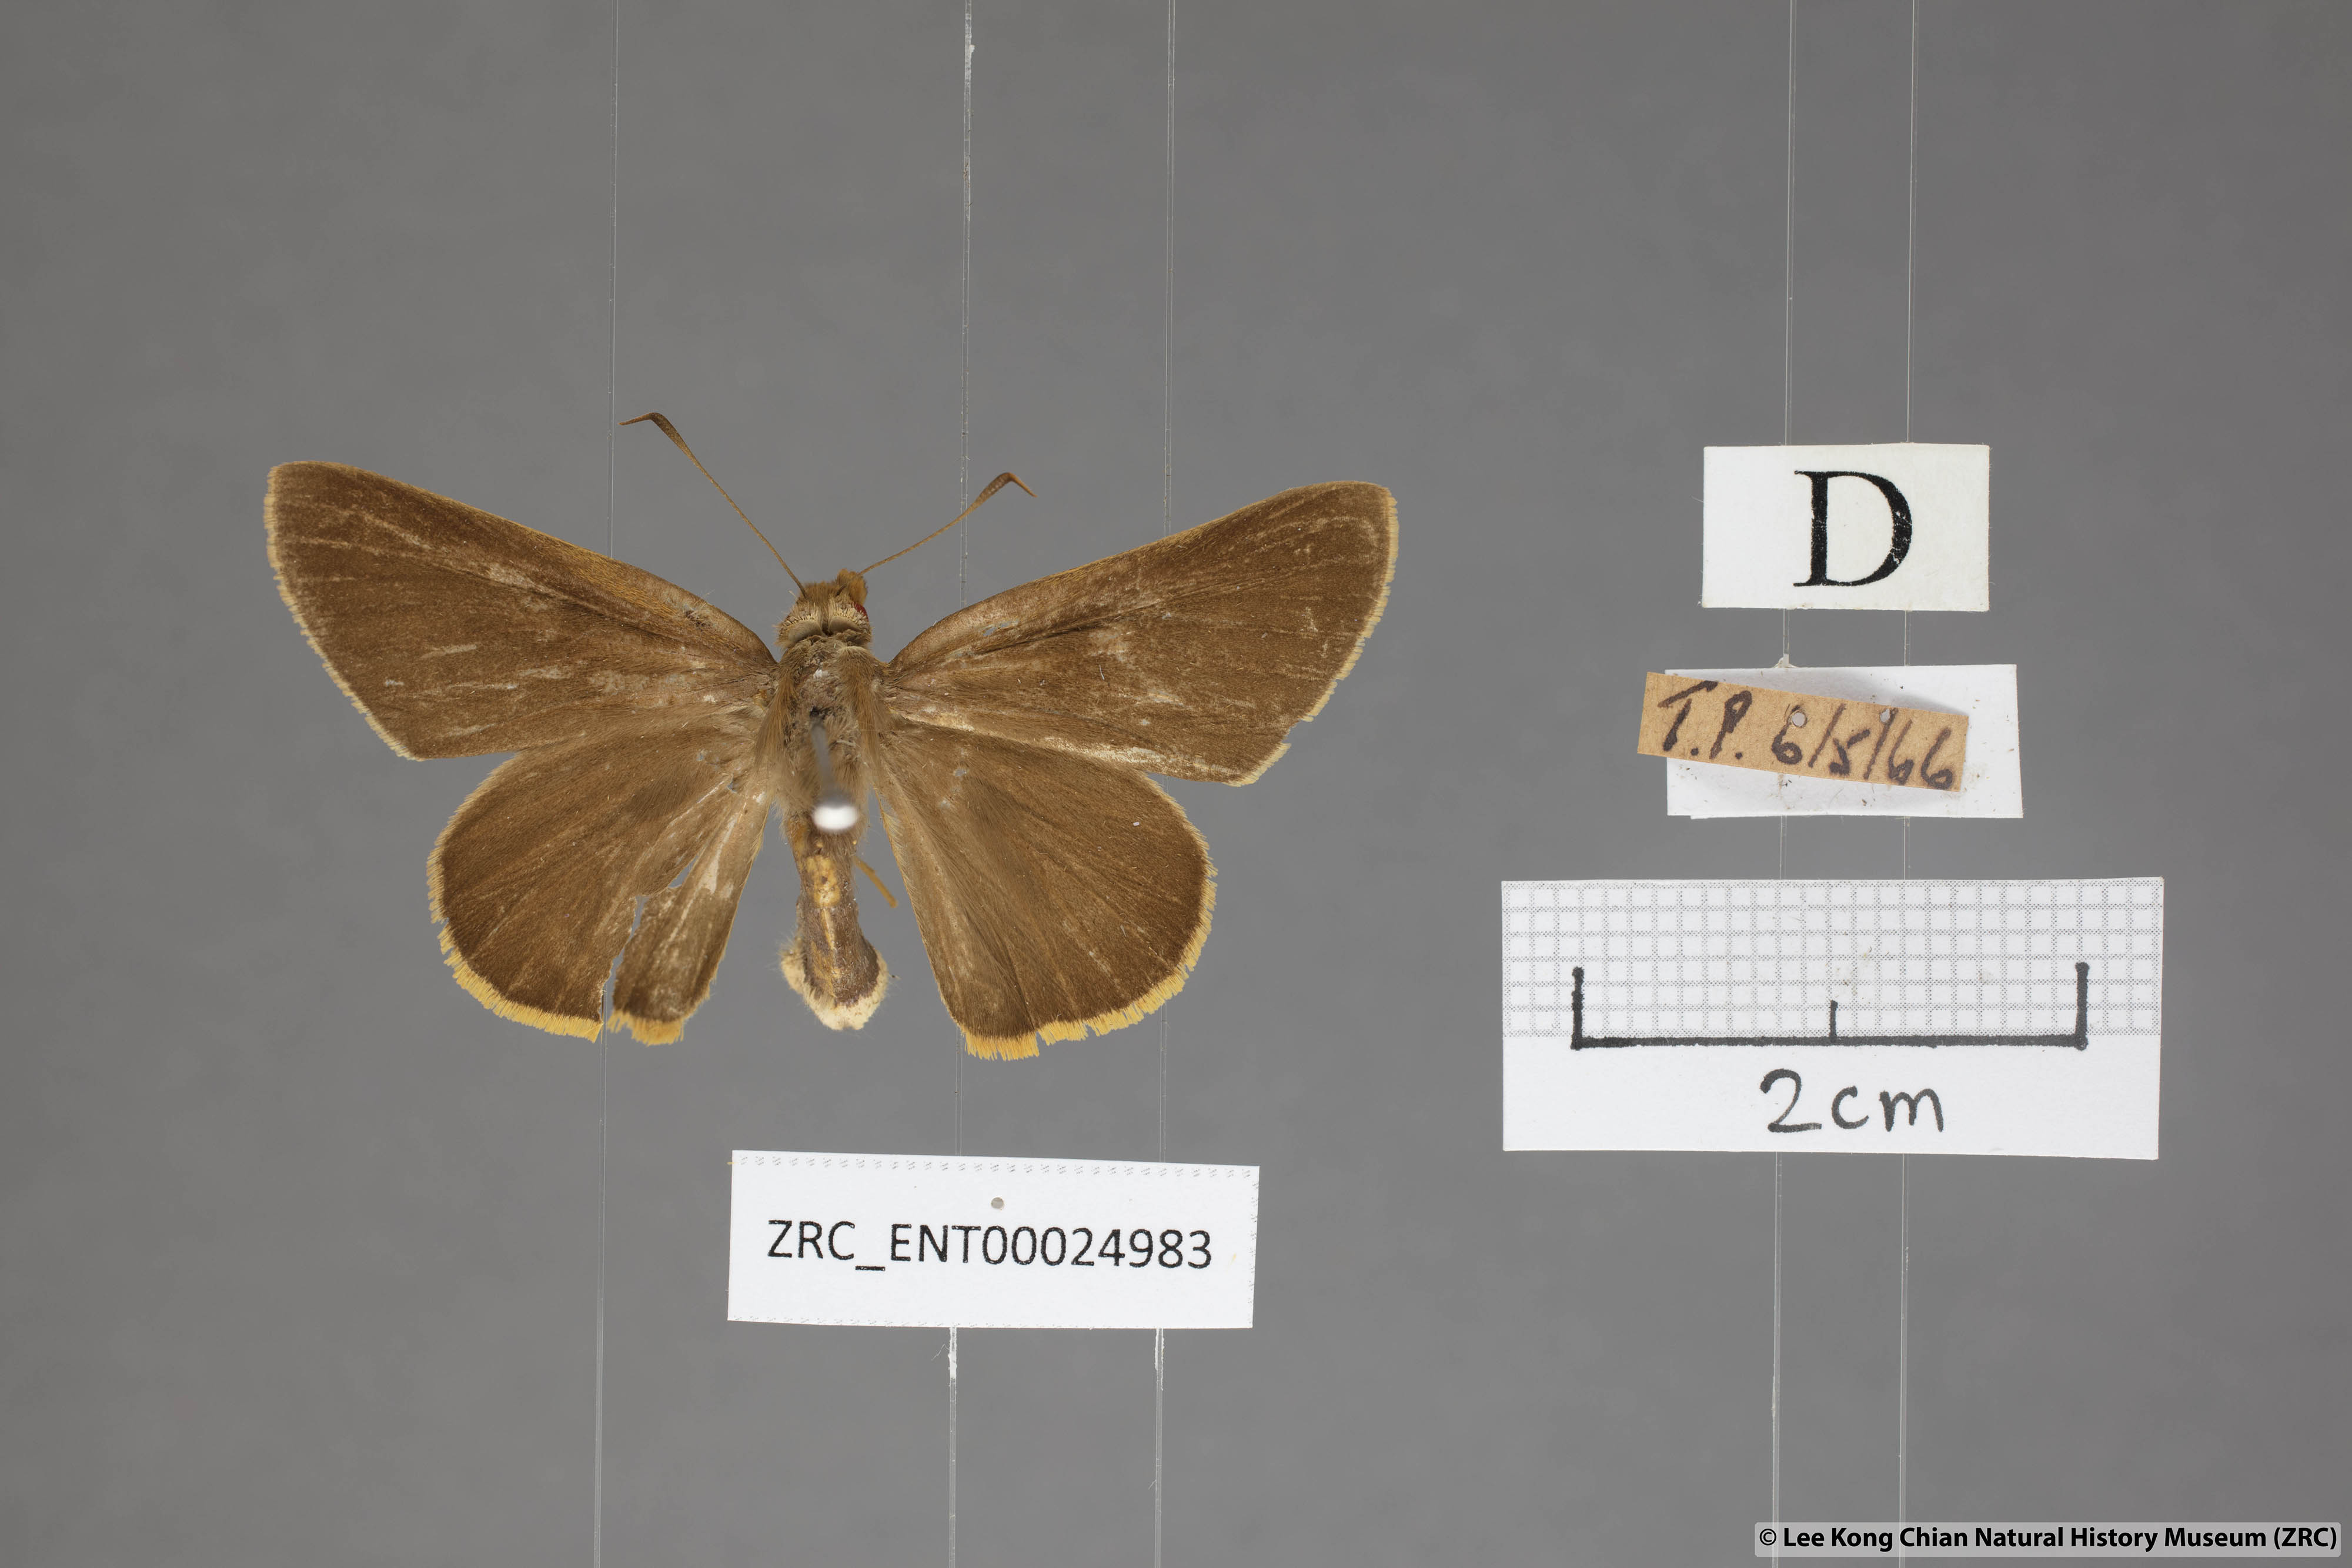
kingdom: Animalia
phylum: Arthropoda
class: Insecta
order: Lepidoptera
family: Hesperiidae
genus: Matapa
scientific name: Matapa druna
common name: Grey-brand redeye
